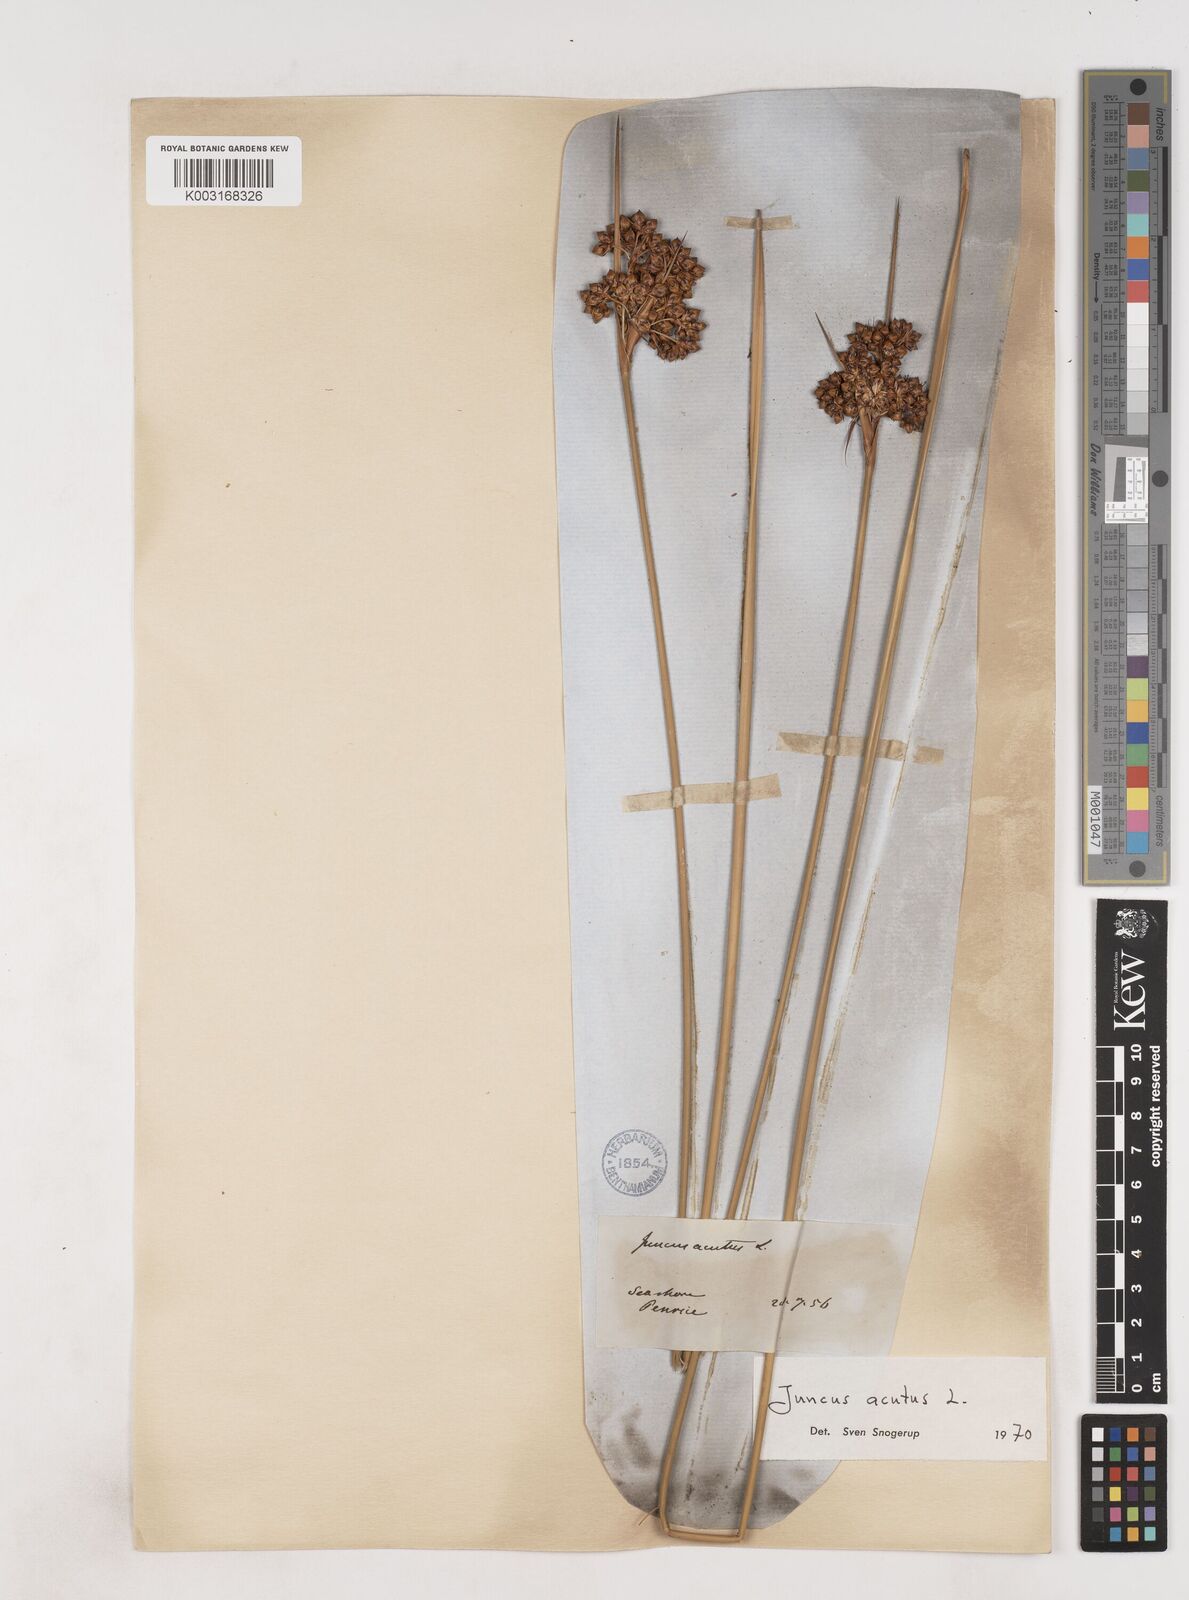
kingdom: Plantae
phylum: Tracheophyta
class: Liliopsida
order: Poales
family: Juncaceae
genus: Juncus
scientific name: Juncus acutus
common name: Sharp rush
